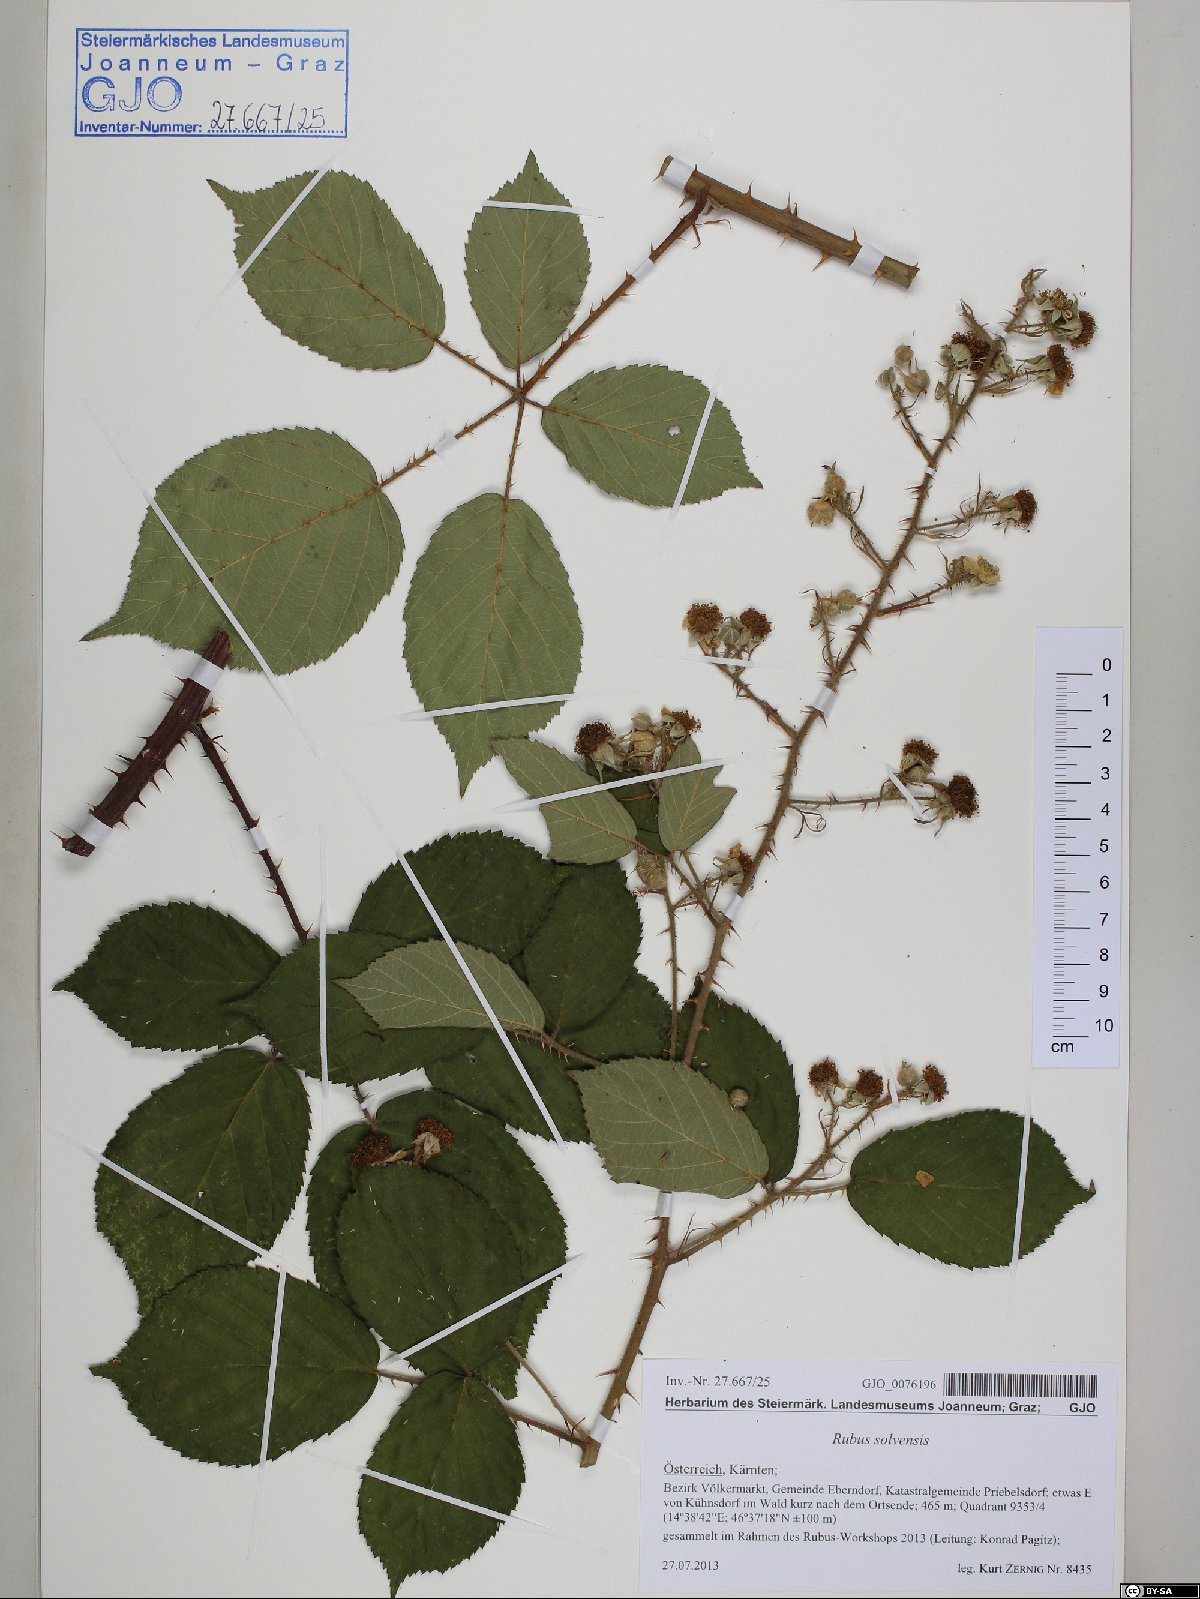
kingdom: Plantae
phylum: Tracheophyta
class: Magnoliopsida
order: Rosales
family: Rosaceae
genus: Rubus
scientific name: Rubus solvensis
